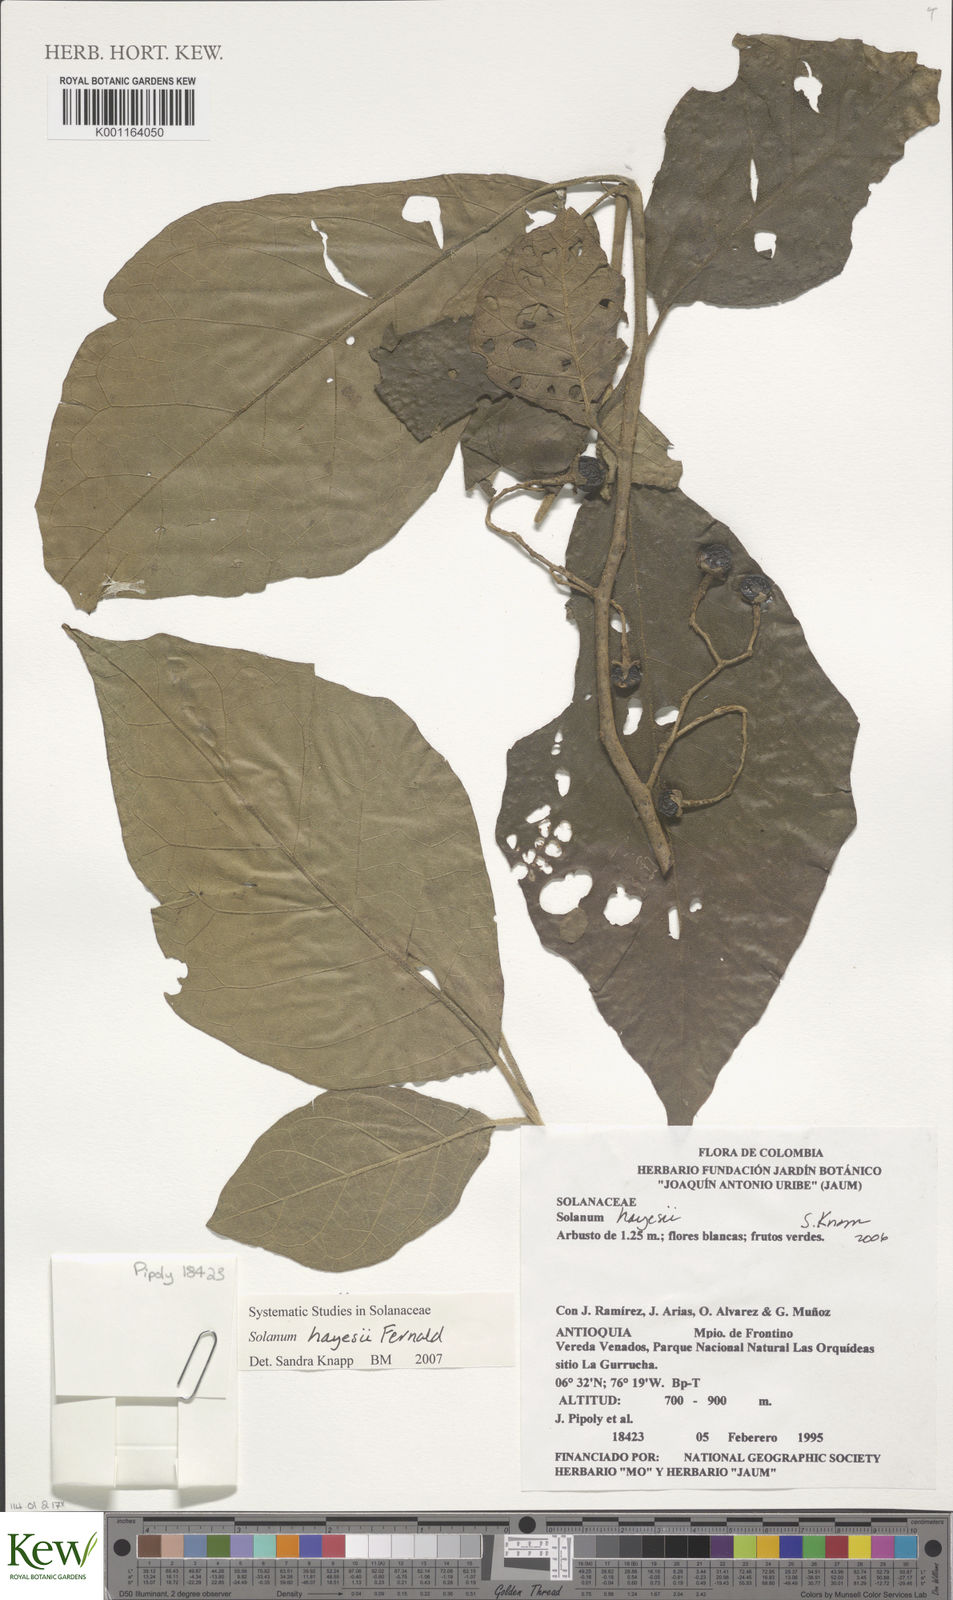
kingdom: Plantae
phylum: Tracheophyta
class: Magnoliopsida
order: Solanales
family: Solanaceae
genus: Solanum
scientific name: Solanum hayesii
